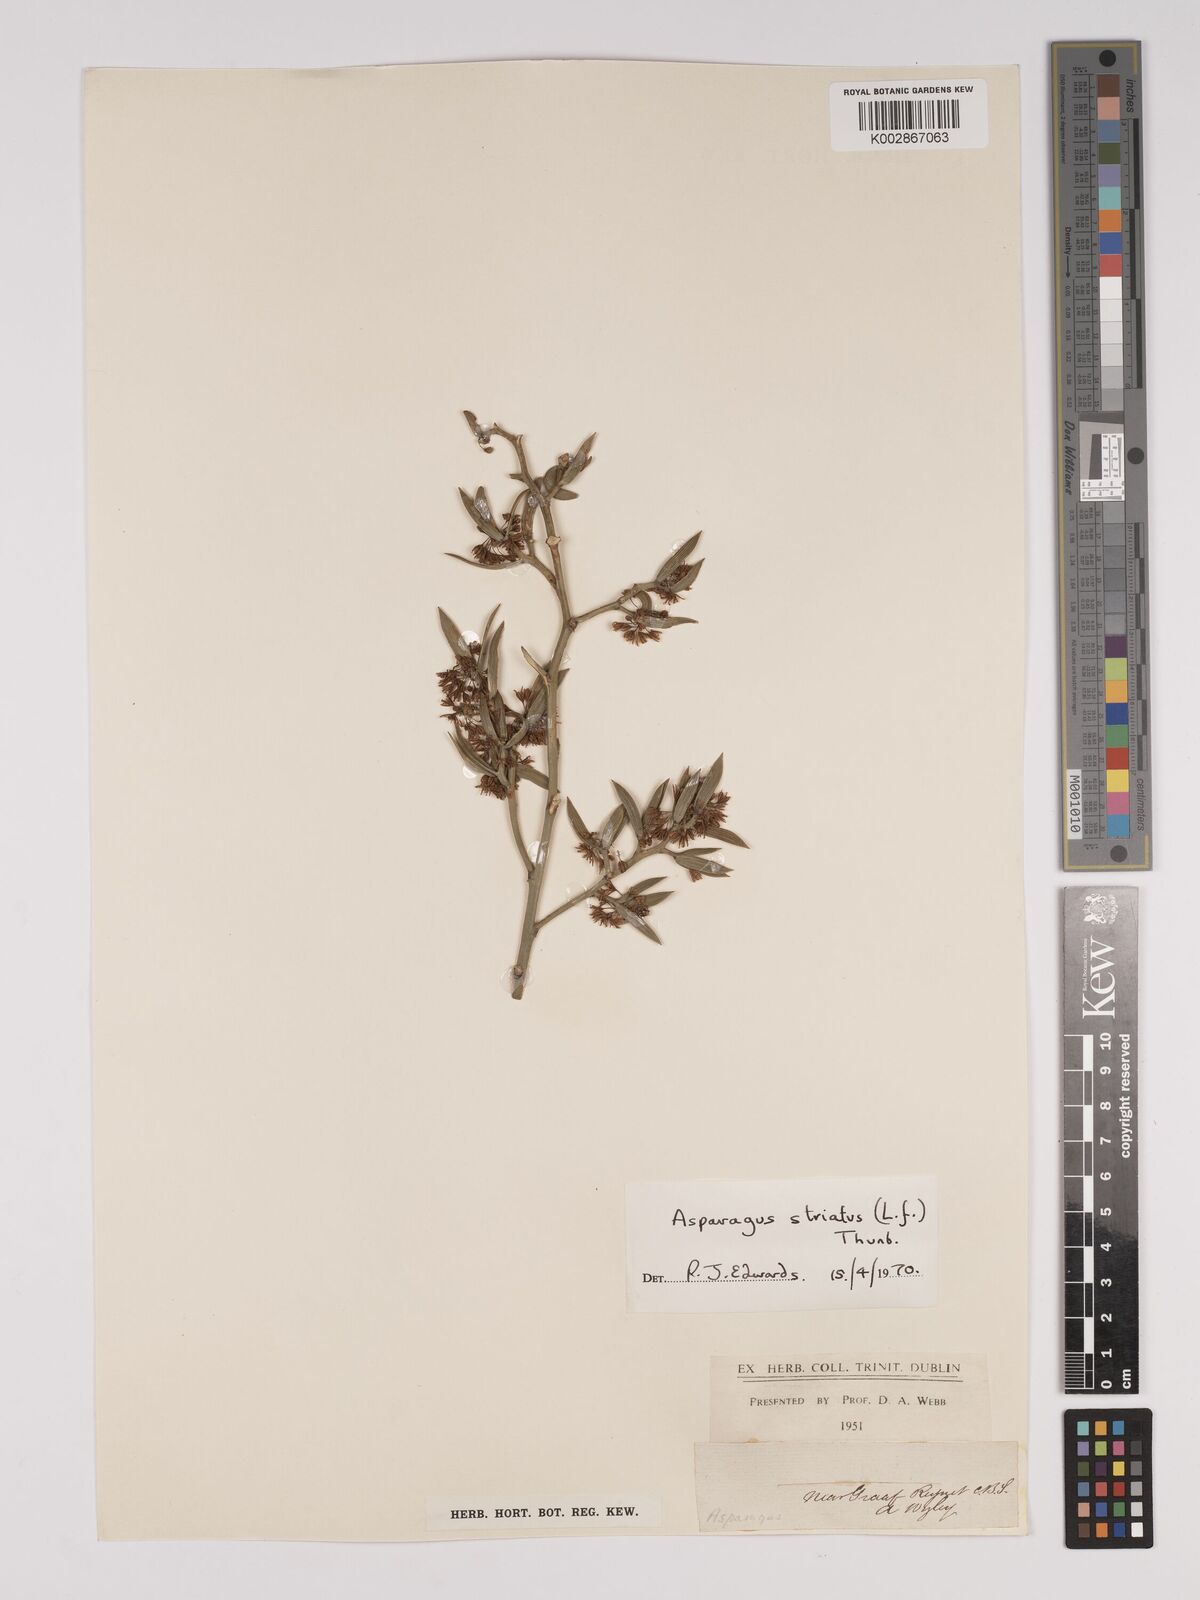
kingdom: Plantae
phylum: Tracheophyta
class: Liliopsida
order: Asparagales
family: Asparagaceae
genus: Asparagus
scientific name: Asparagus striatus
